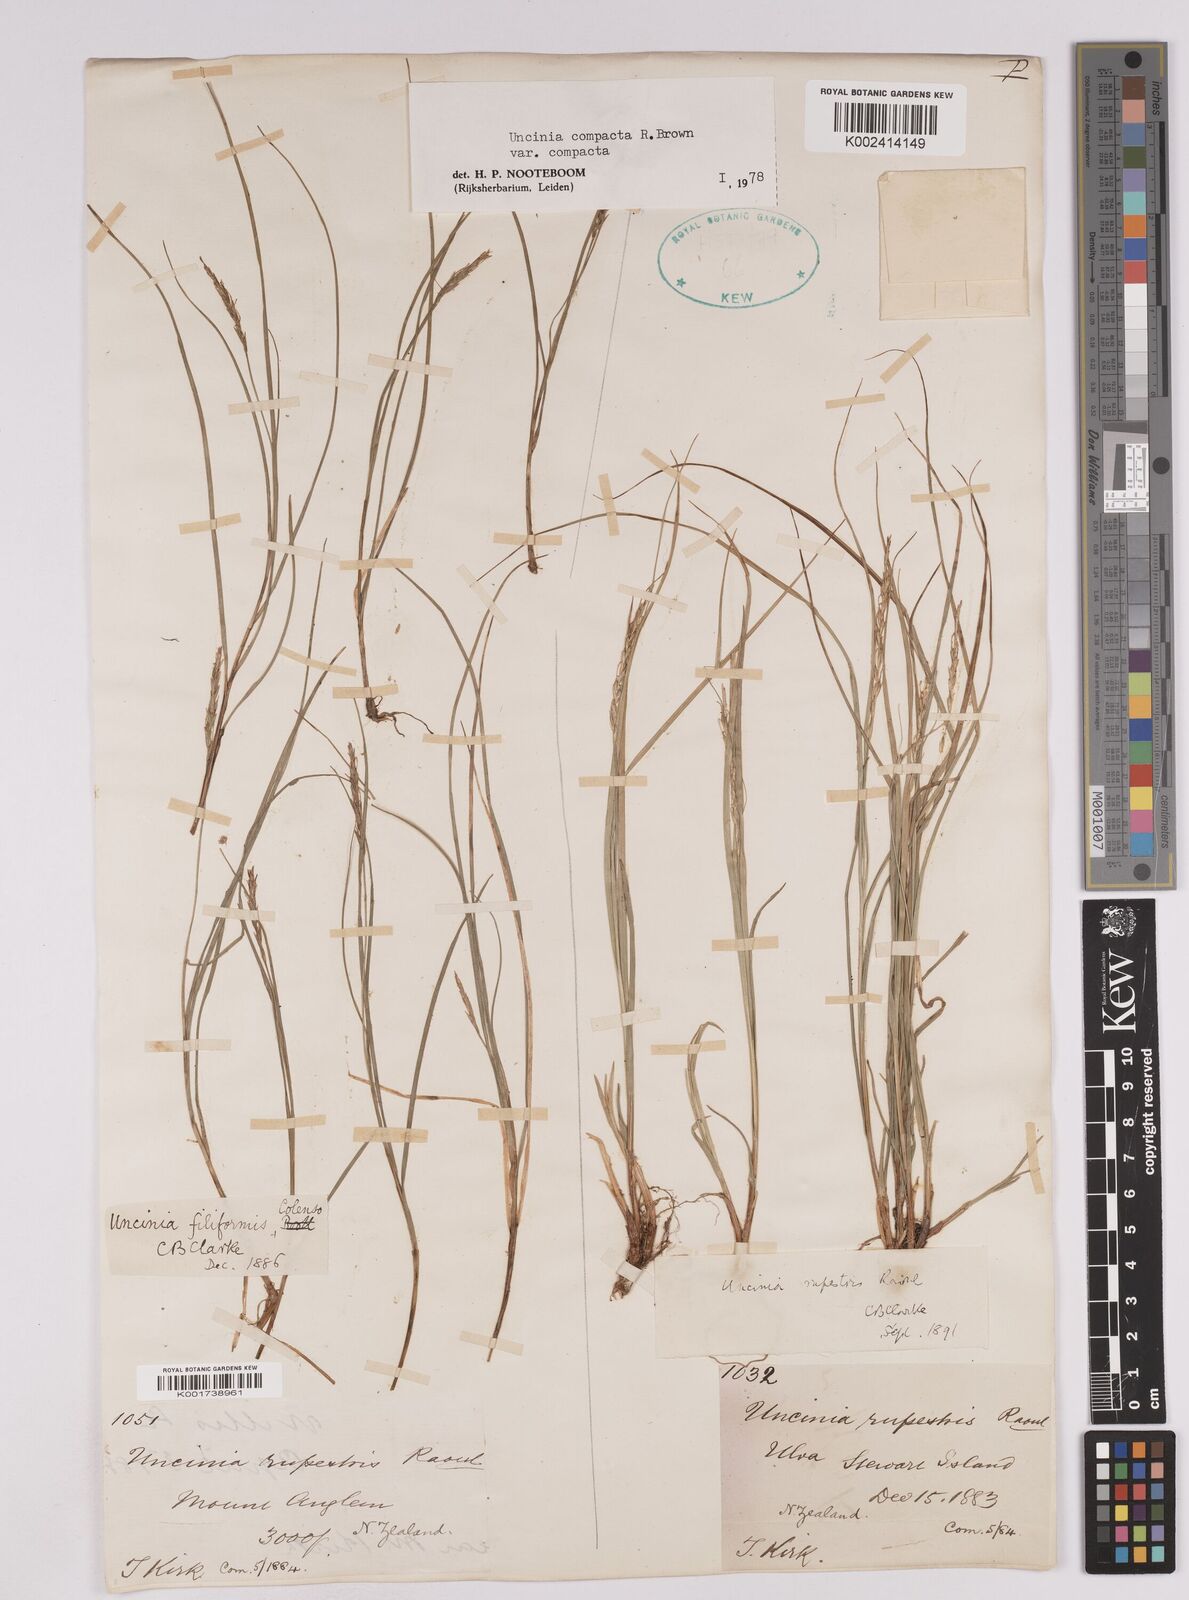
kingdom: Plantae
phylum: Tracheophyta
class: Liliopsida
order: Poales
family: Cyperaceae
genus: Carex
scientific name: Carex austrocompacta
